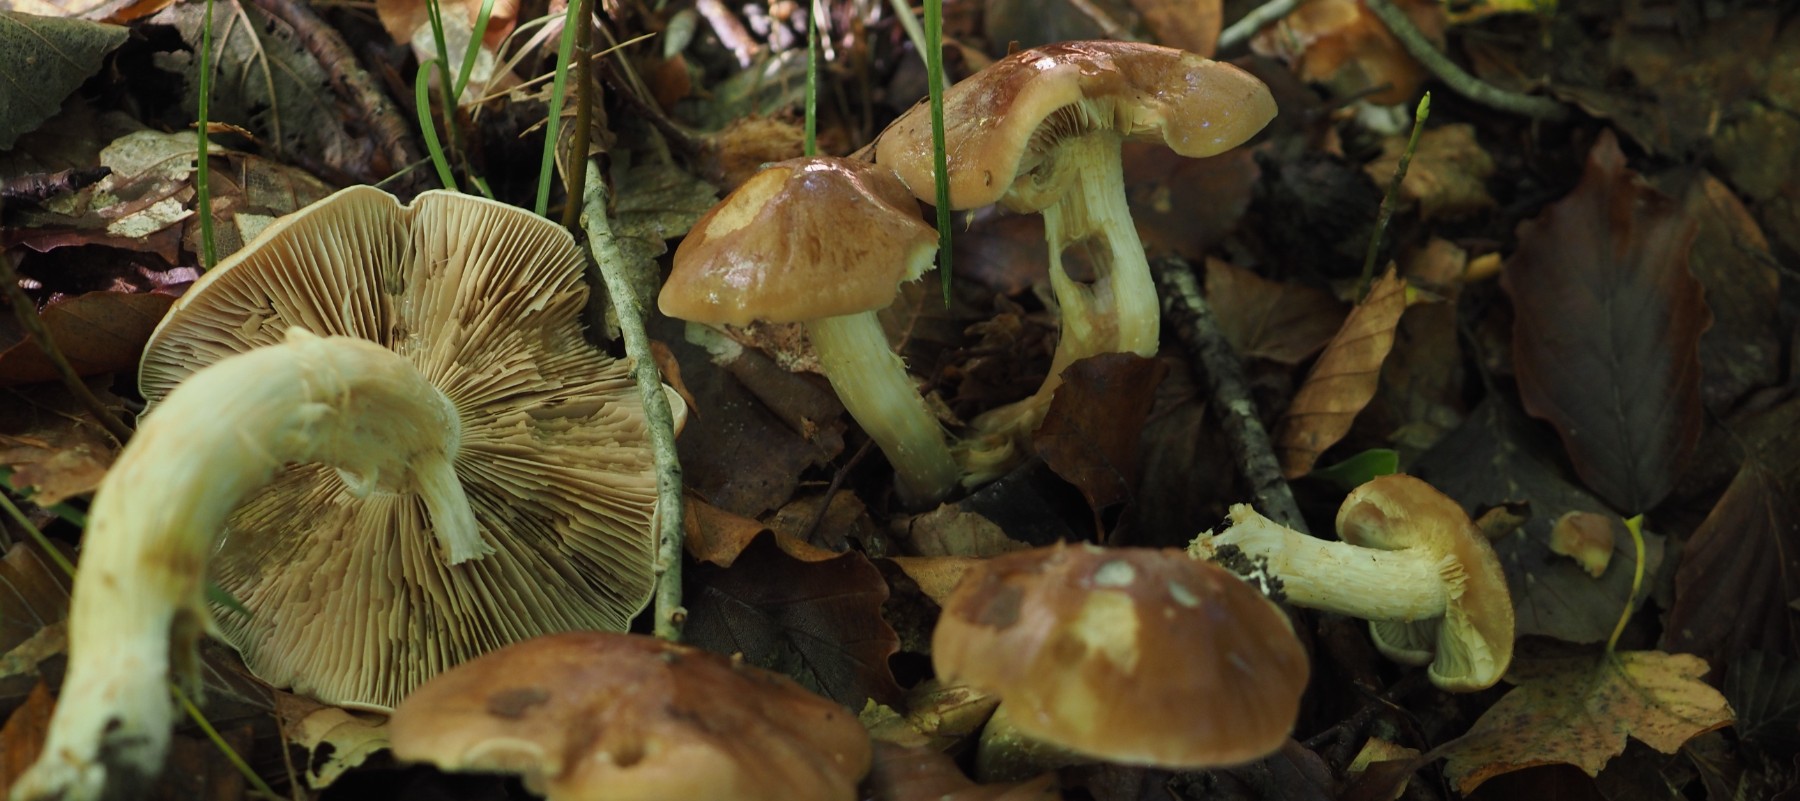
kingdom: Fungi
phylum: Basidiomycota
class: Agaricomycetes
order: Agaricales
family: Hymenogastraceae
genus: Hebeloma
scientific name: Hebeloma theobrominum
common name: rødbrun tåreblad
